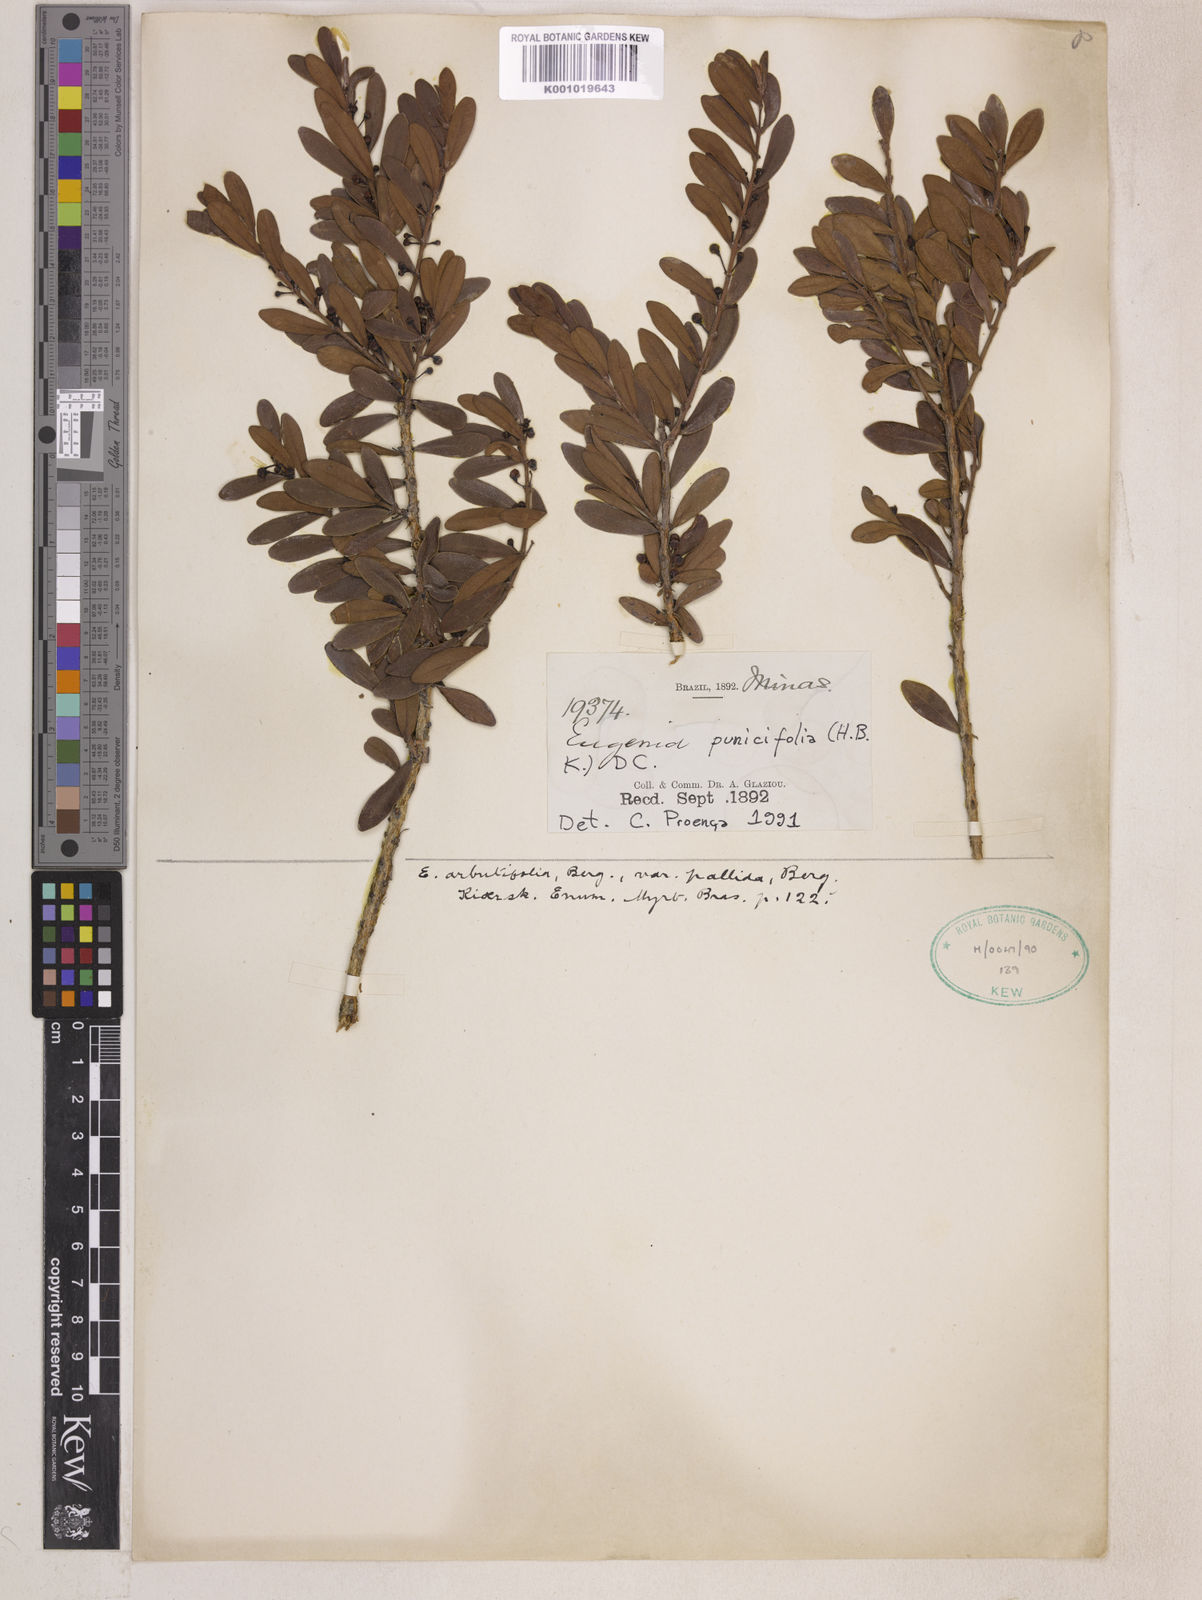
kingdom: Plantae
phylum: Tracheophyta
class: Magnoliopsida
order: Myrtales
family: Myrtaceae
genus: Eugenia
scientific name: Eugenia punicifolia
